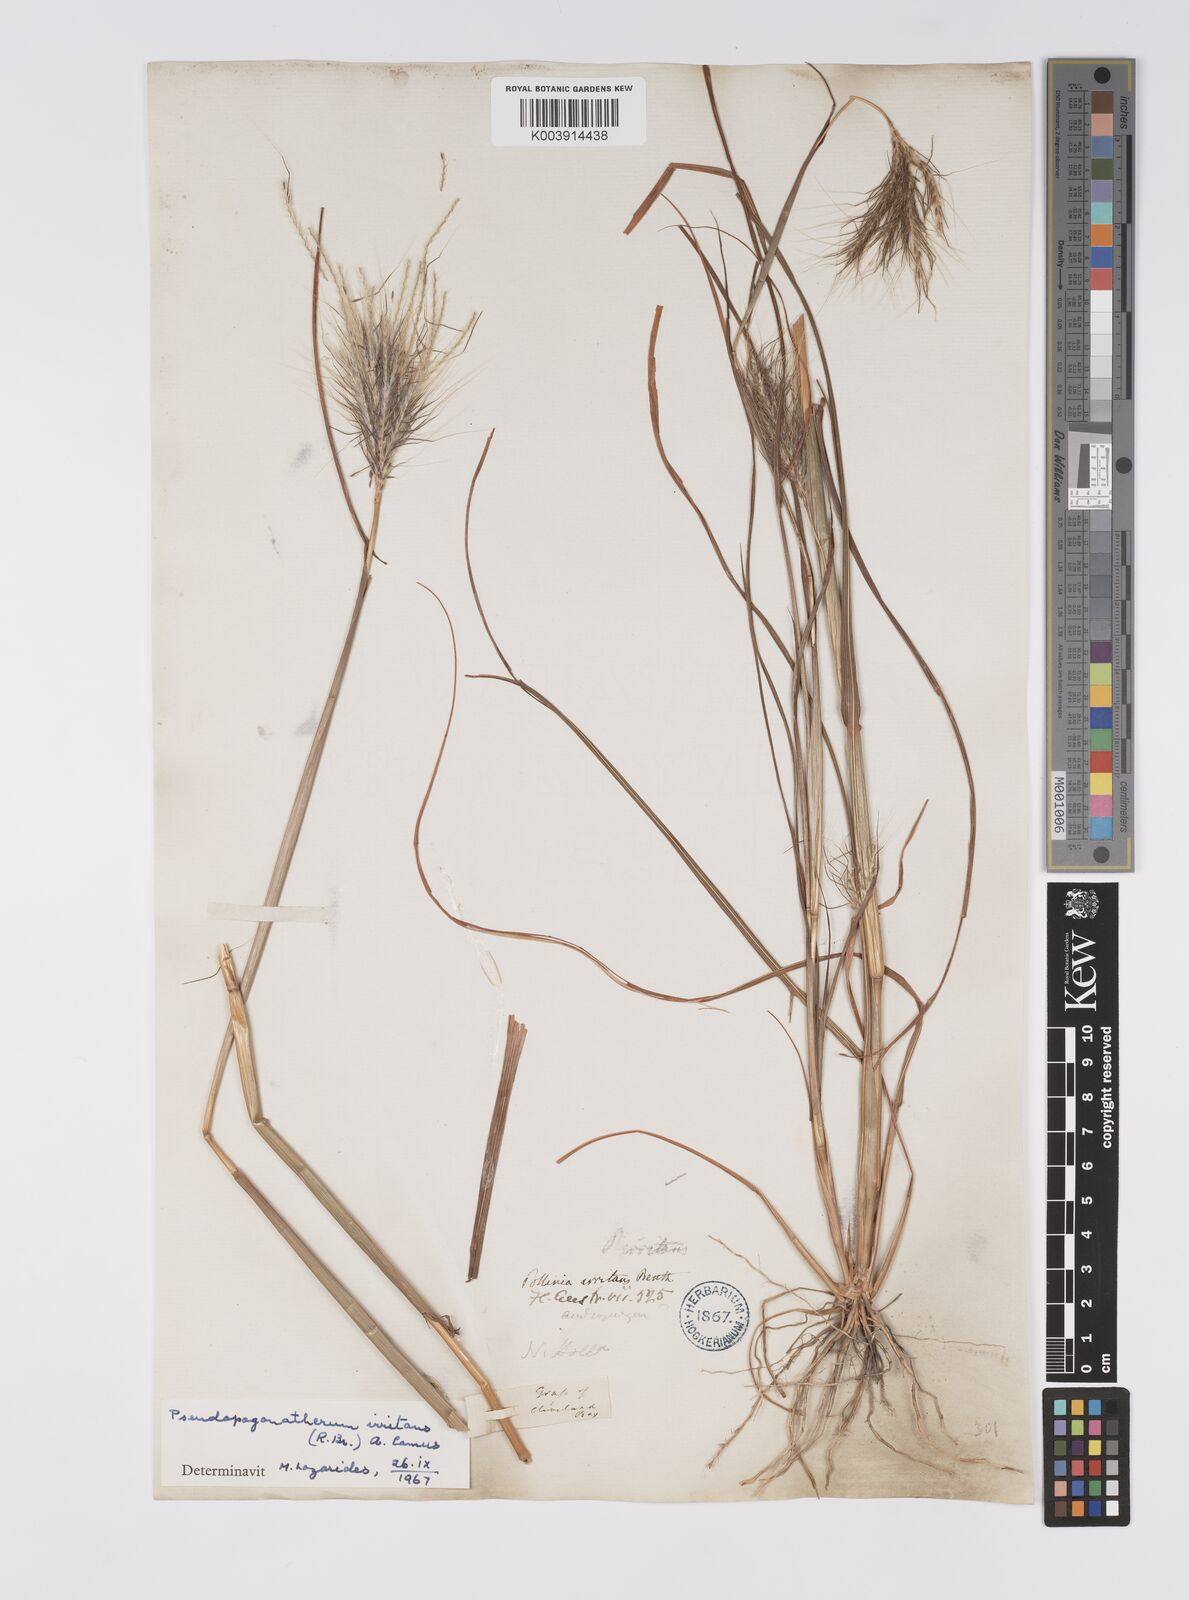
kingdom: Plantae
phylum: Tracheophyta
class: Liliopsida
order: Poales
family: Poaceae
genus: Pseudopogonatherum
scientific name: Pseudopogonatherum irritans
